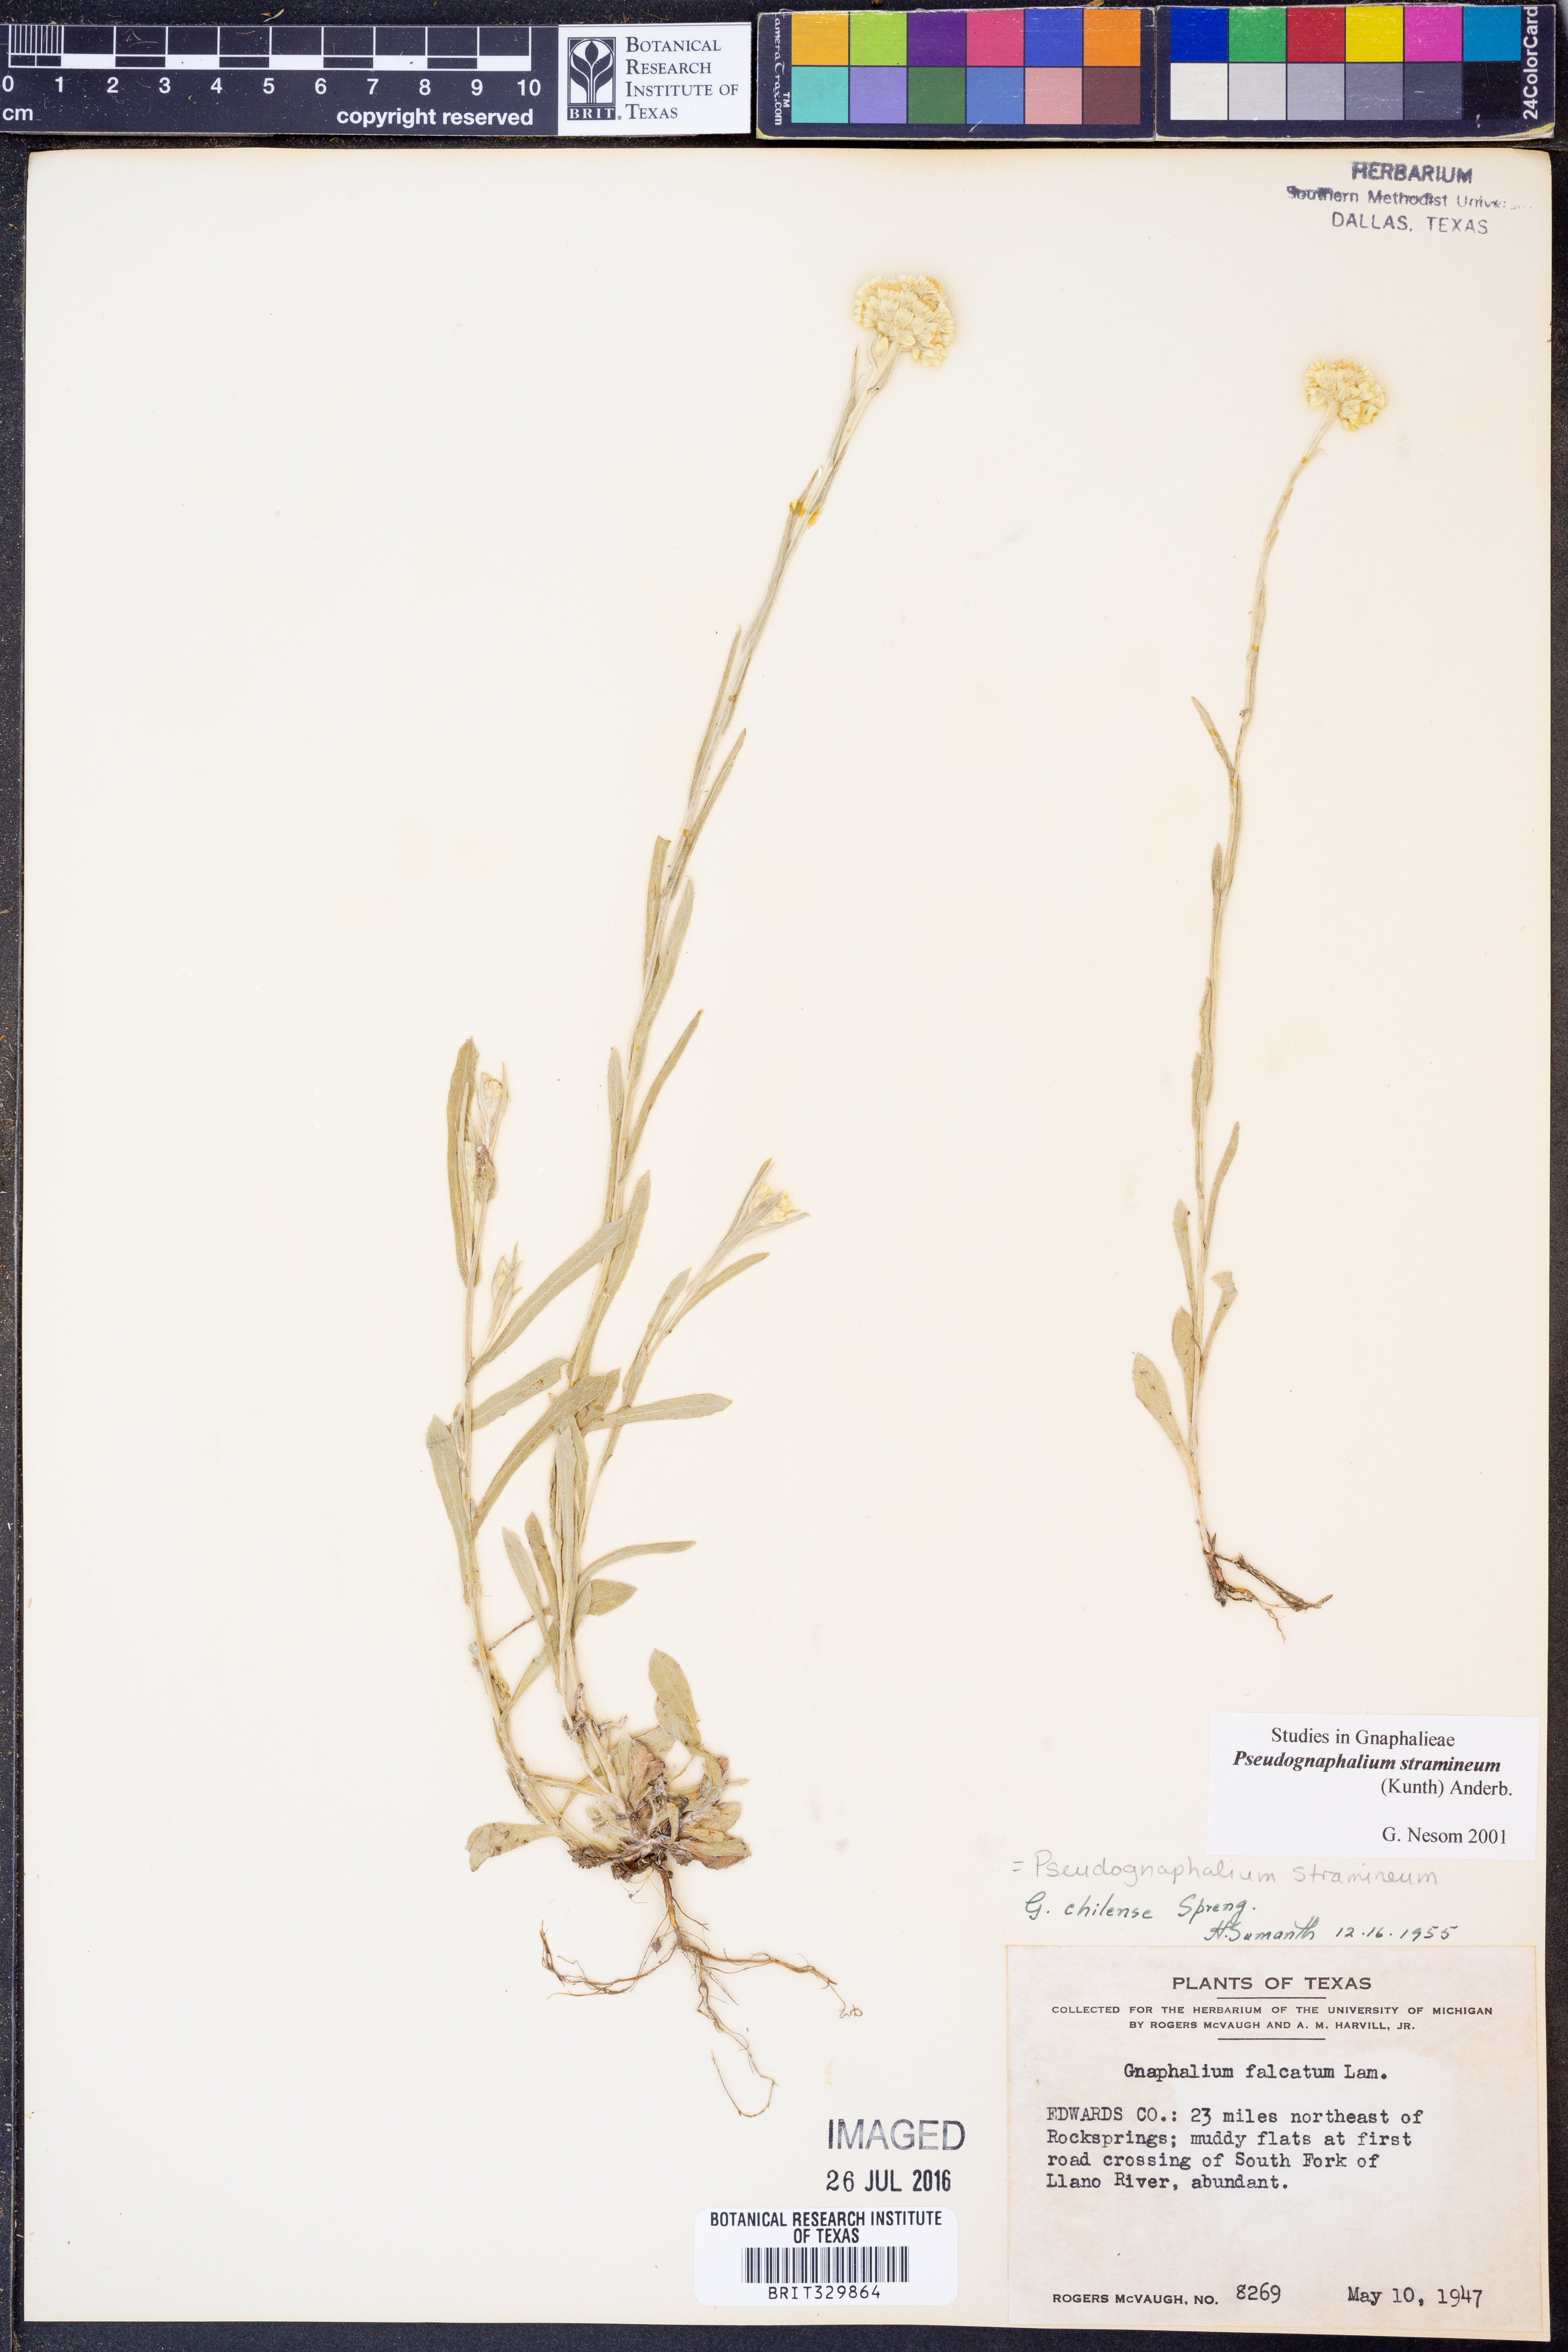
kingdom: Plantae
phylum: Tracheophyta
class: Magnoliopsida
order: Asterales
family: Asteraceae
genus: Pseudognaphalium
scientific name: Pseudognaphalium stramineum
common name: Cotton-batting-plant
